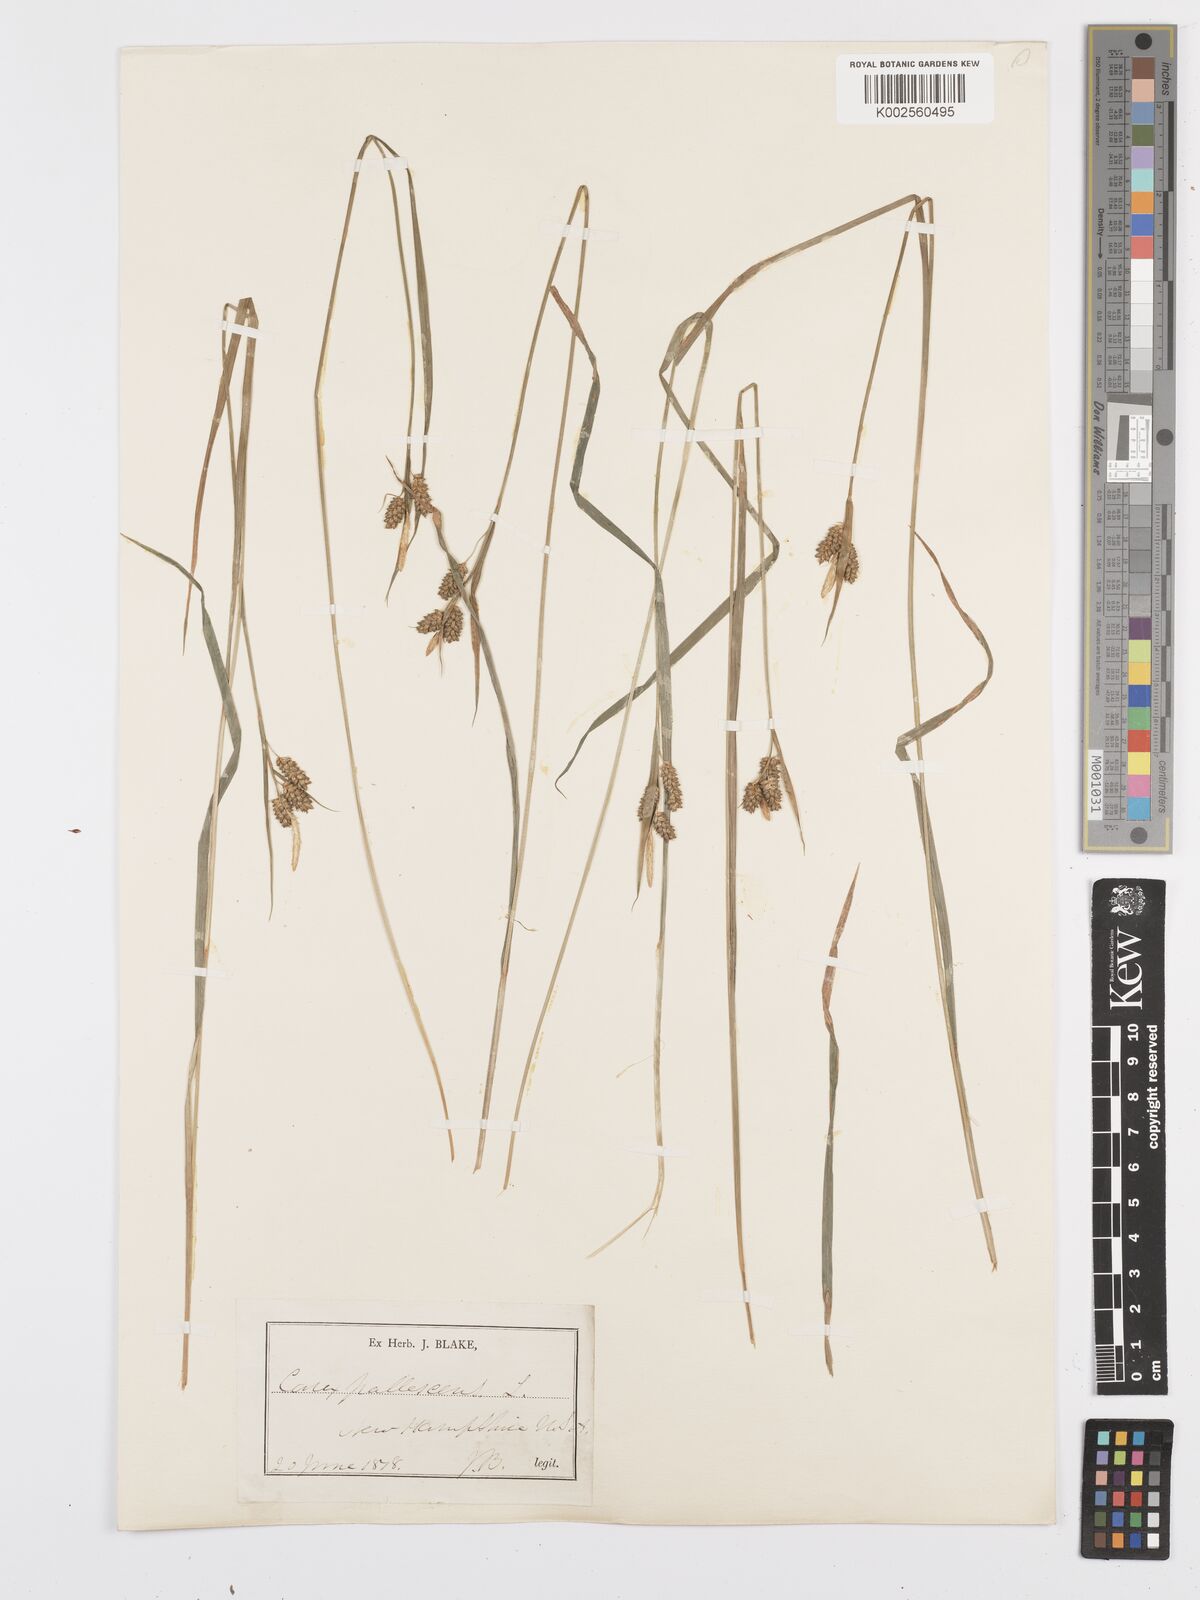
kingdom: Plantae
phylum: Tracheophyta
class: Liliopsida
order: Poales
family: Cyperaceae
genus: Carex
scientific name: Carex pallescens
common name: Pale sedge
